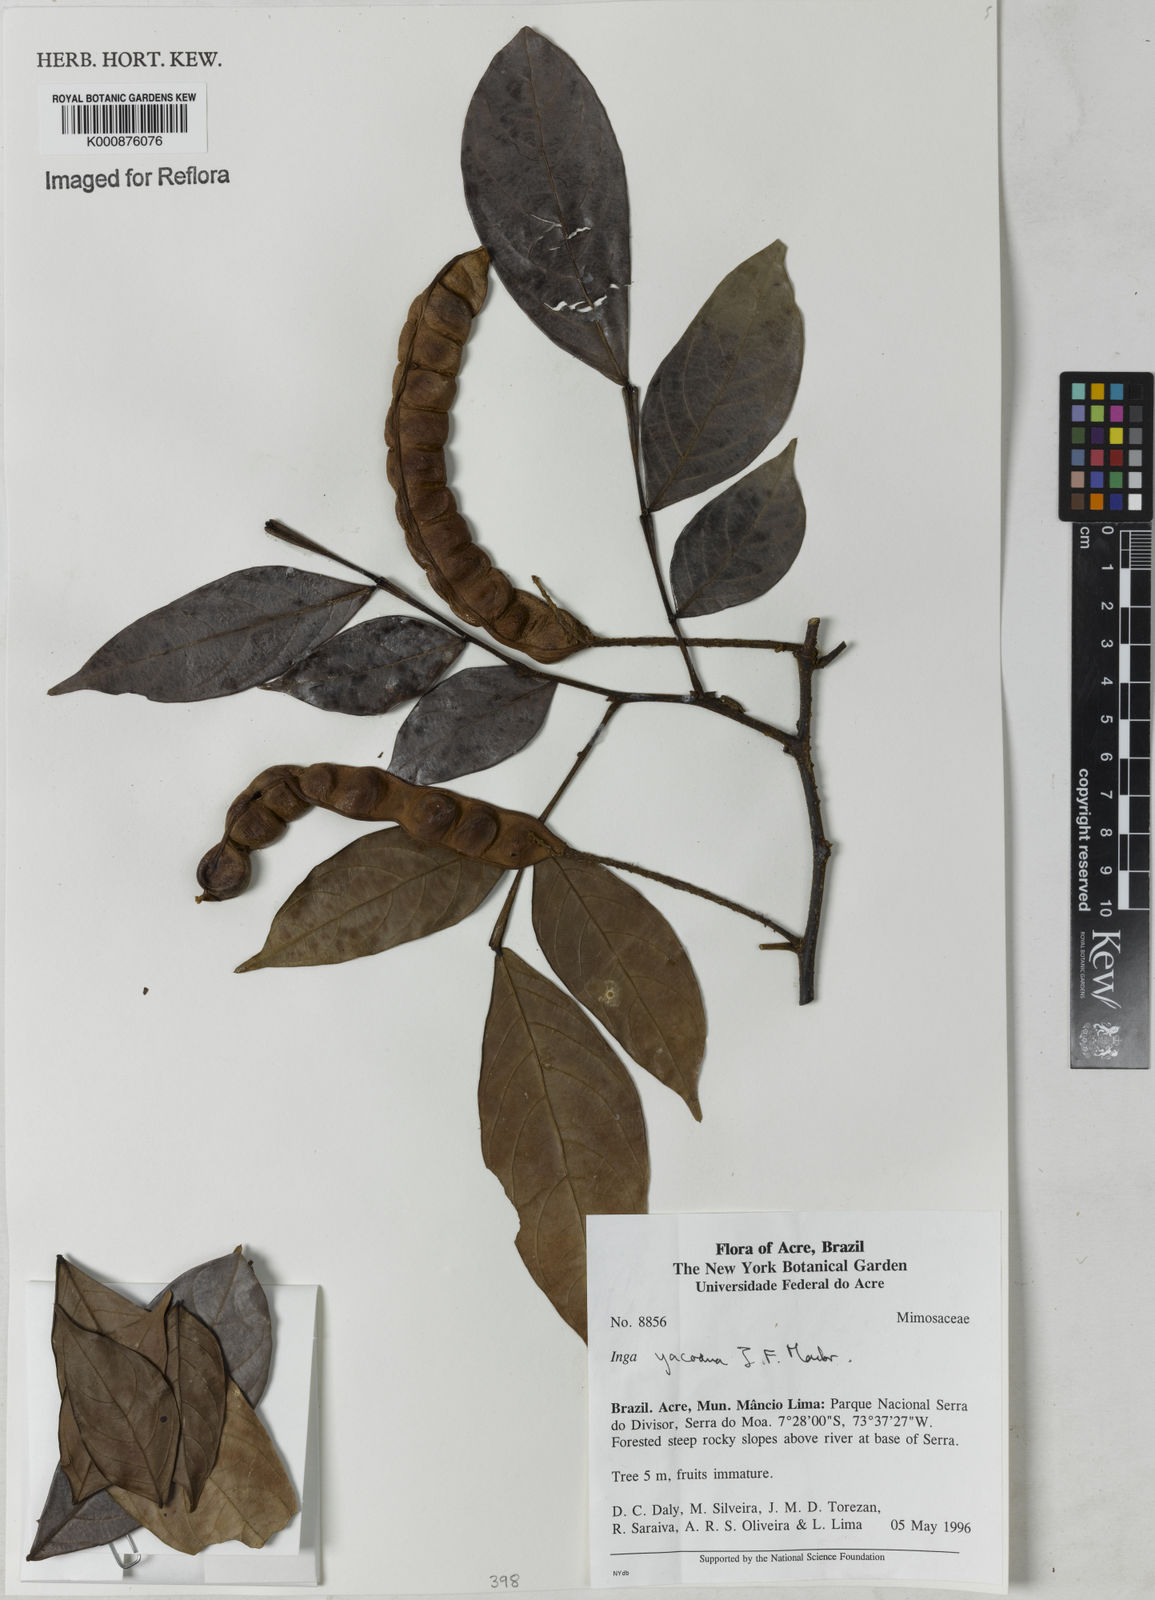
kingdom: Plantae
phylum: Tracheophyta
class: Magnoliopsida
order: Fabales
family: Fabaceae
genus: Inga
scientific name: Inga yacoana
